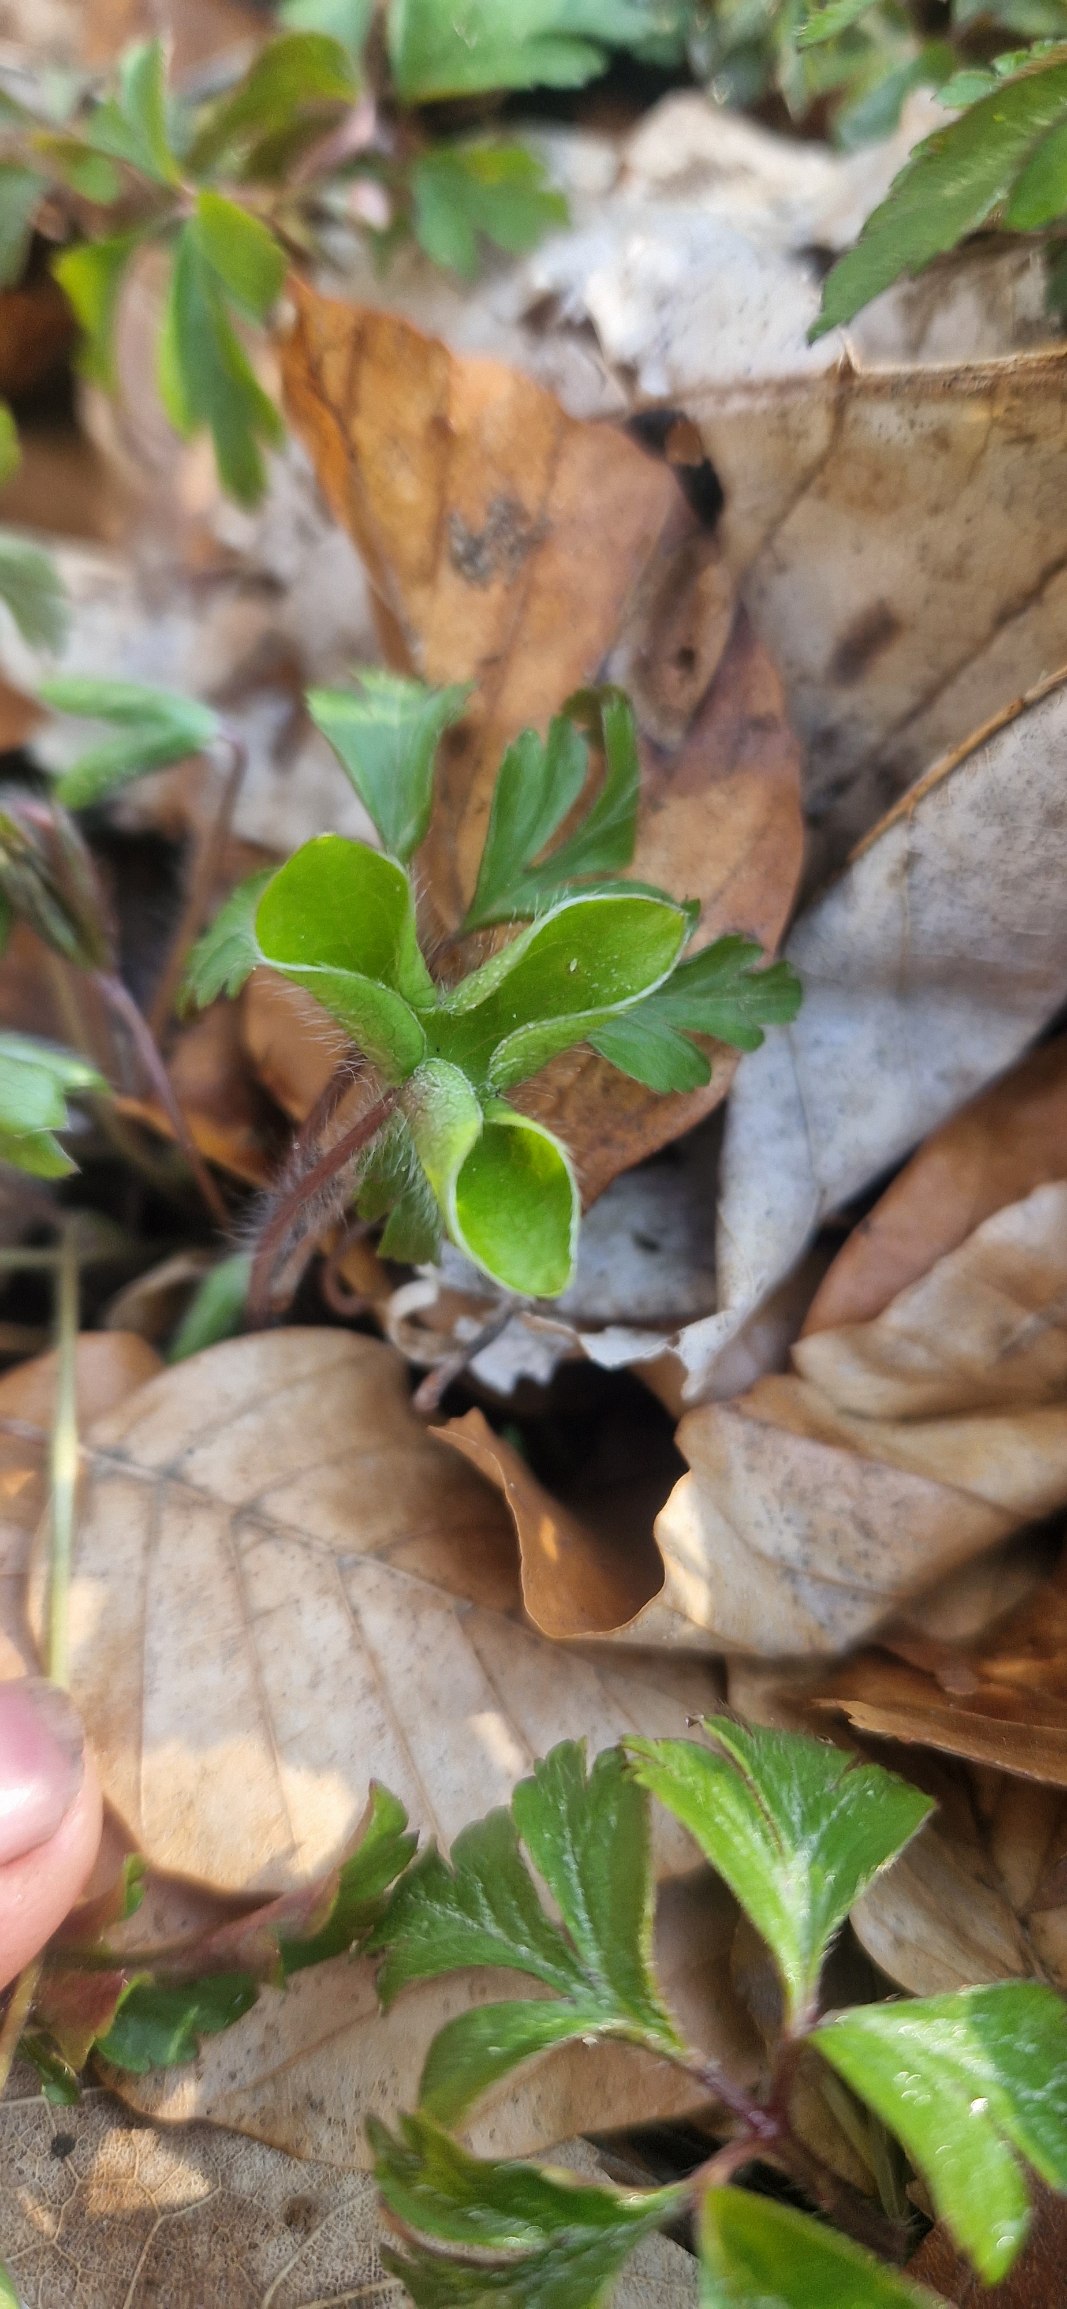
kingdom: Plantae
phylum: Tracheophyta
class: Magnoliopsida
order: Ranunculales
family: Ranunculaceae
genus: Hepatica
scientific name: Hepatica nobilis
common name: Blå anemone
